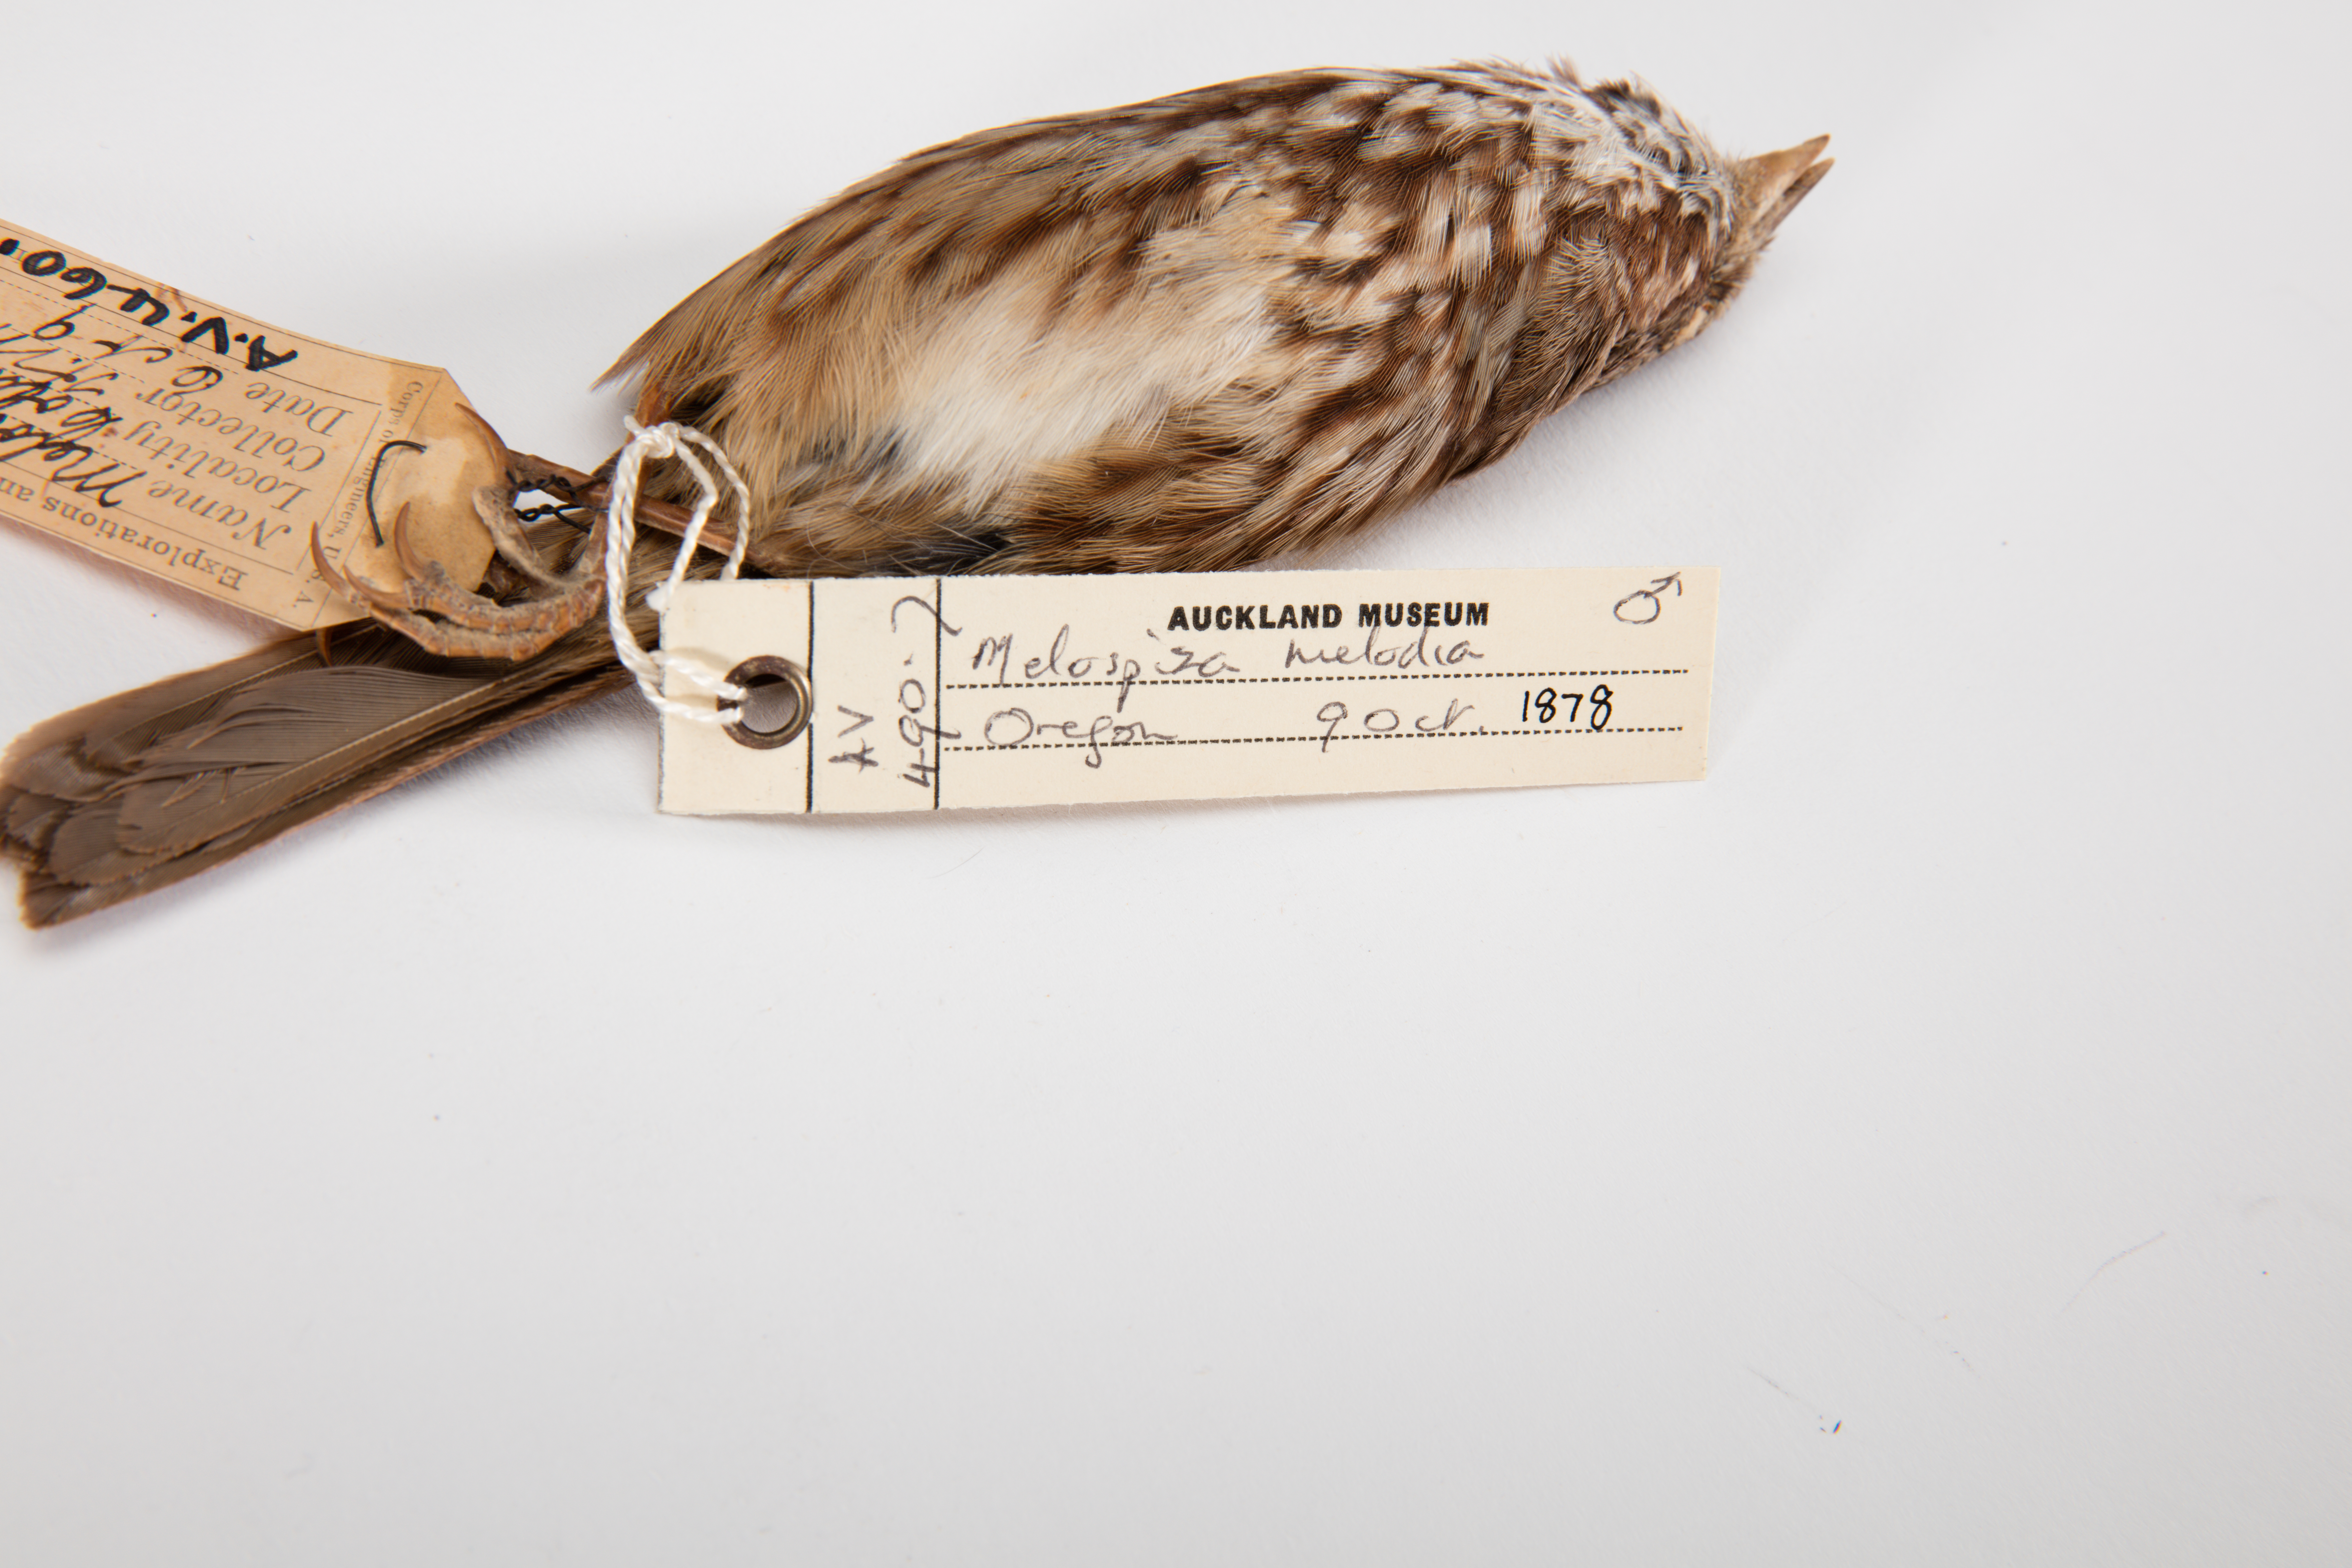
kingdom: Animalia
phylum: Chordata
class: Aves
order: Passeriformes
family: Passerellidae
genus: Melospiza
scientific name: Melospiza melodia
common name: Song sparrow
